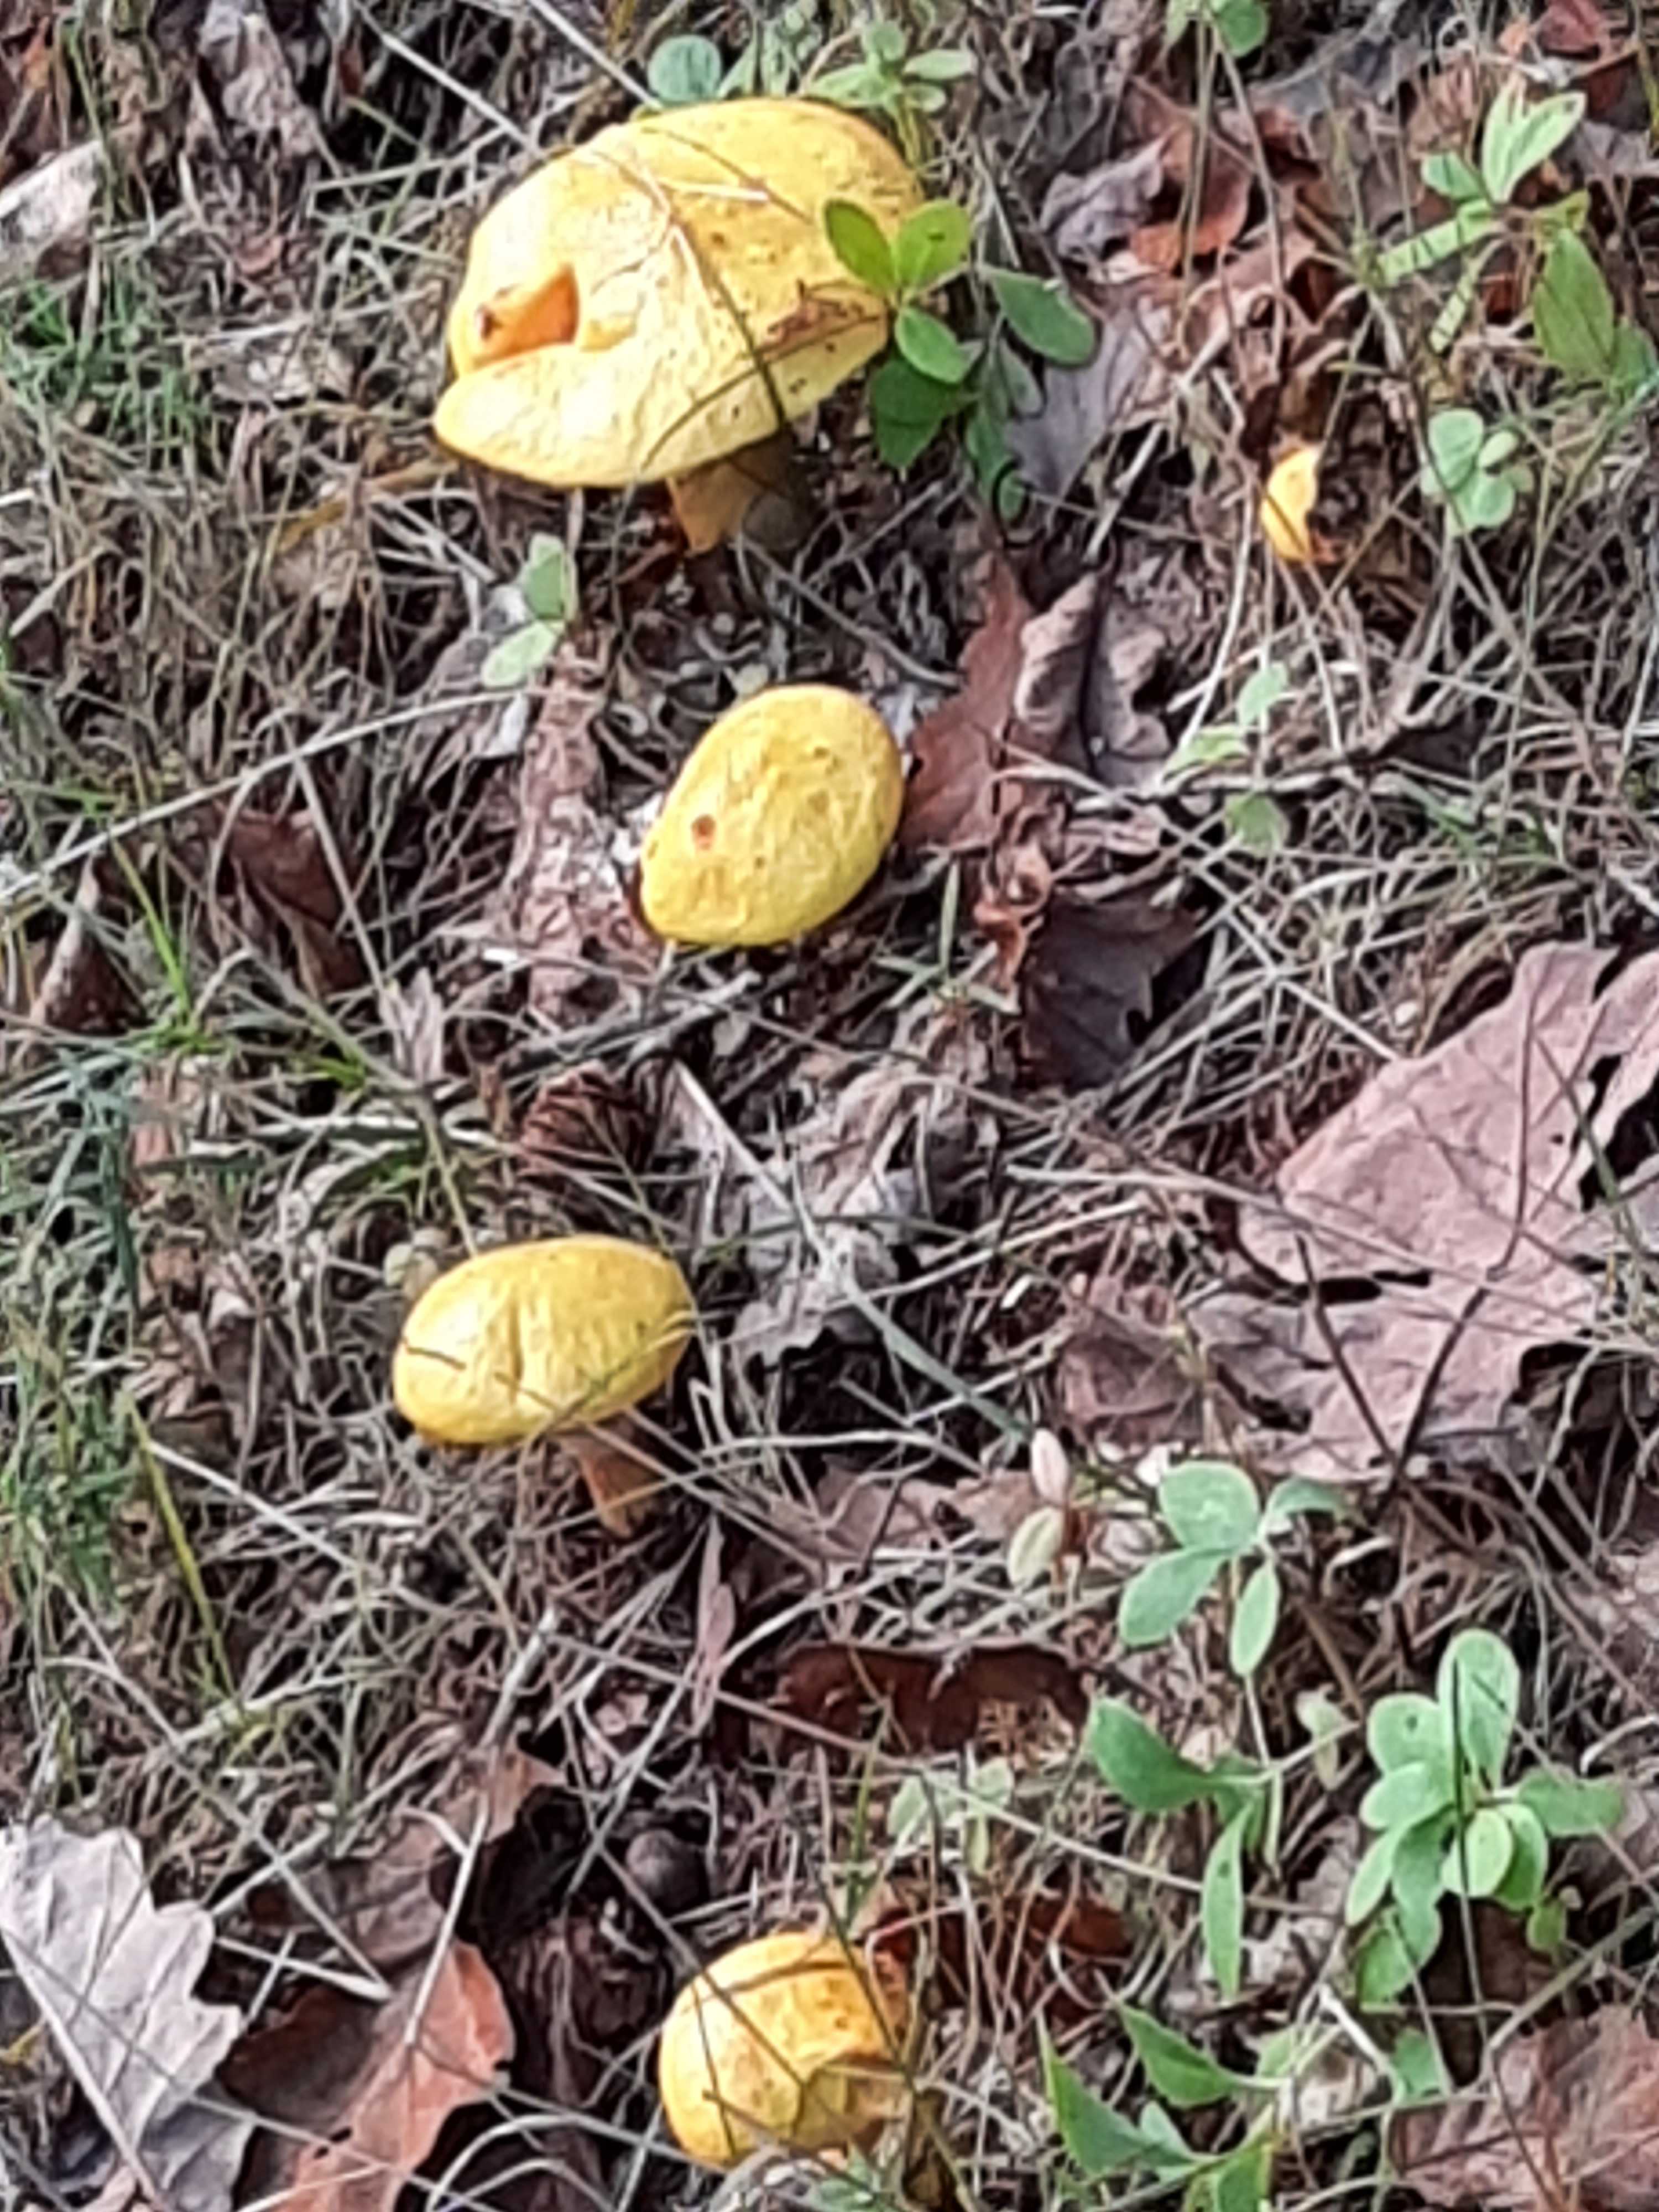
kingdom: Fungi
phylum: Basidiomycota
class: Agaricomycetes
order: Boletales
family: Suillaceae
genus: Suillus
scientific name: Suillus grevillei
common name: lærke-slimrørhat
